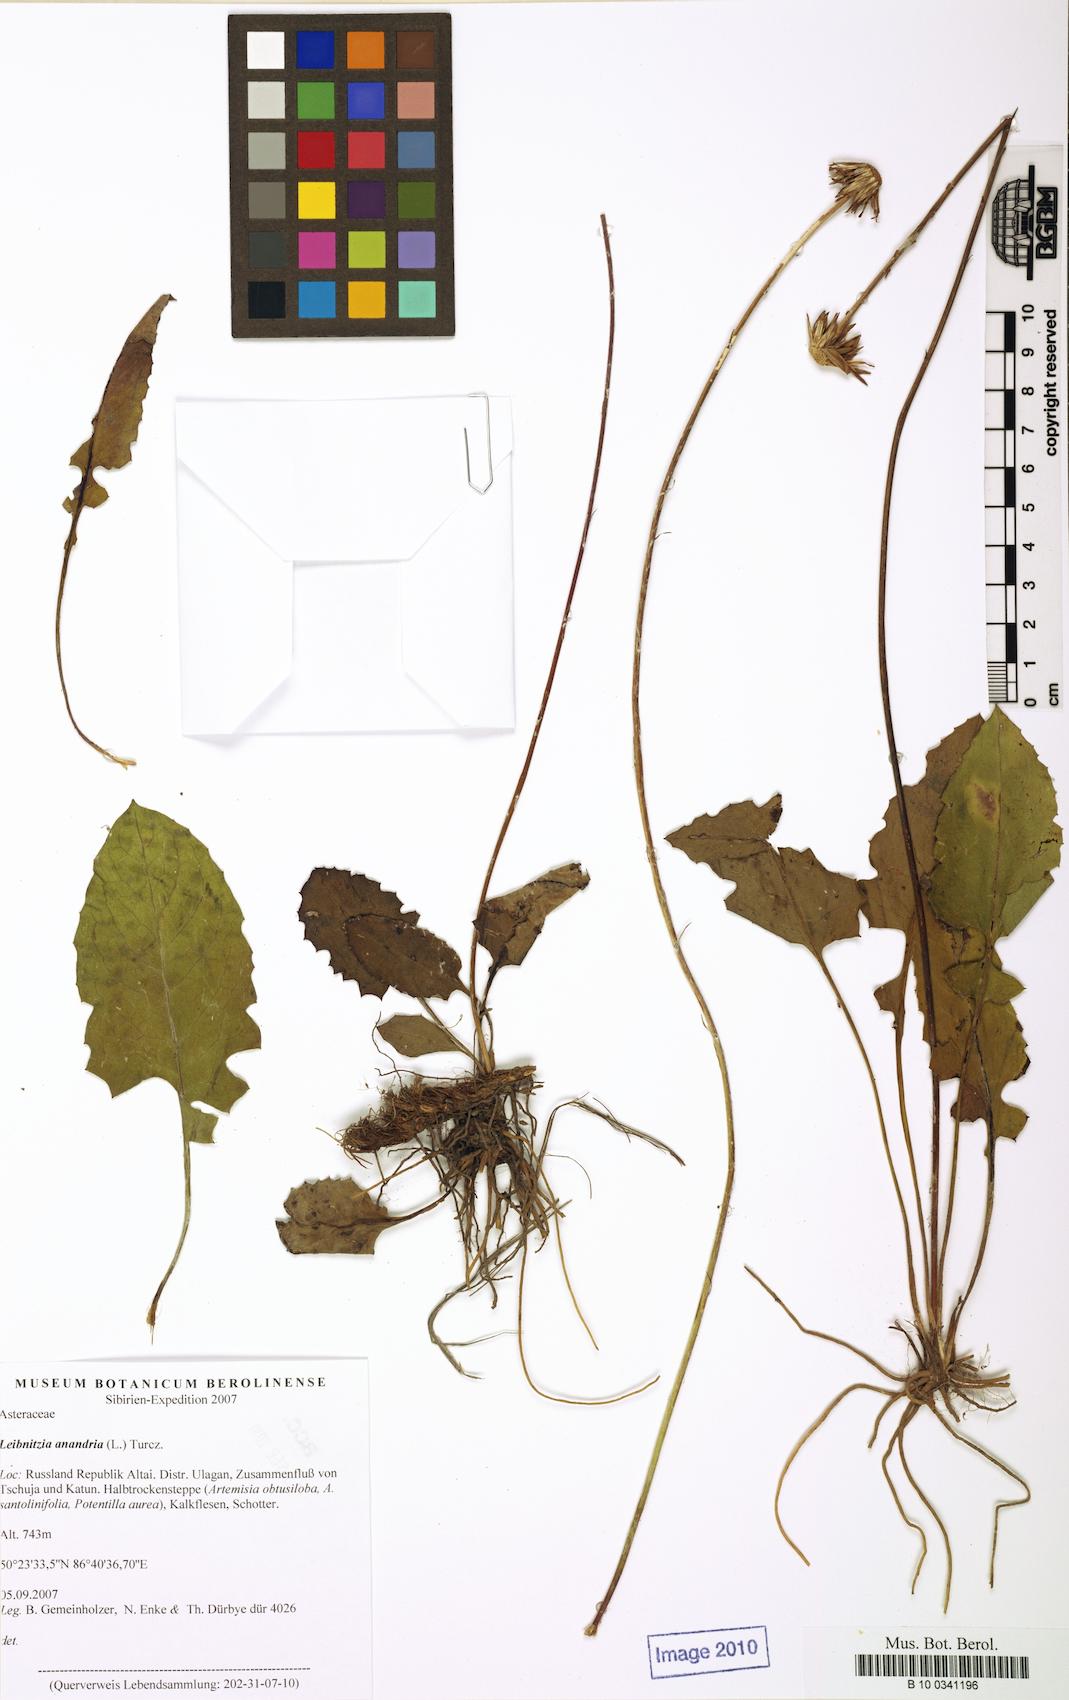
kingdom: Plantae
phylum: Tracheophyta
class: Magnoliopsida
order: Asterales
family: Asteraceae
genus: Leibnitzia
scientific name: Leibnitzia anandria
